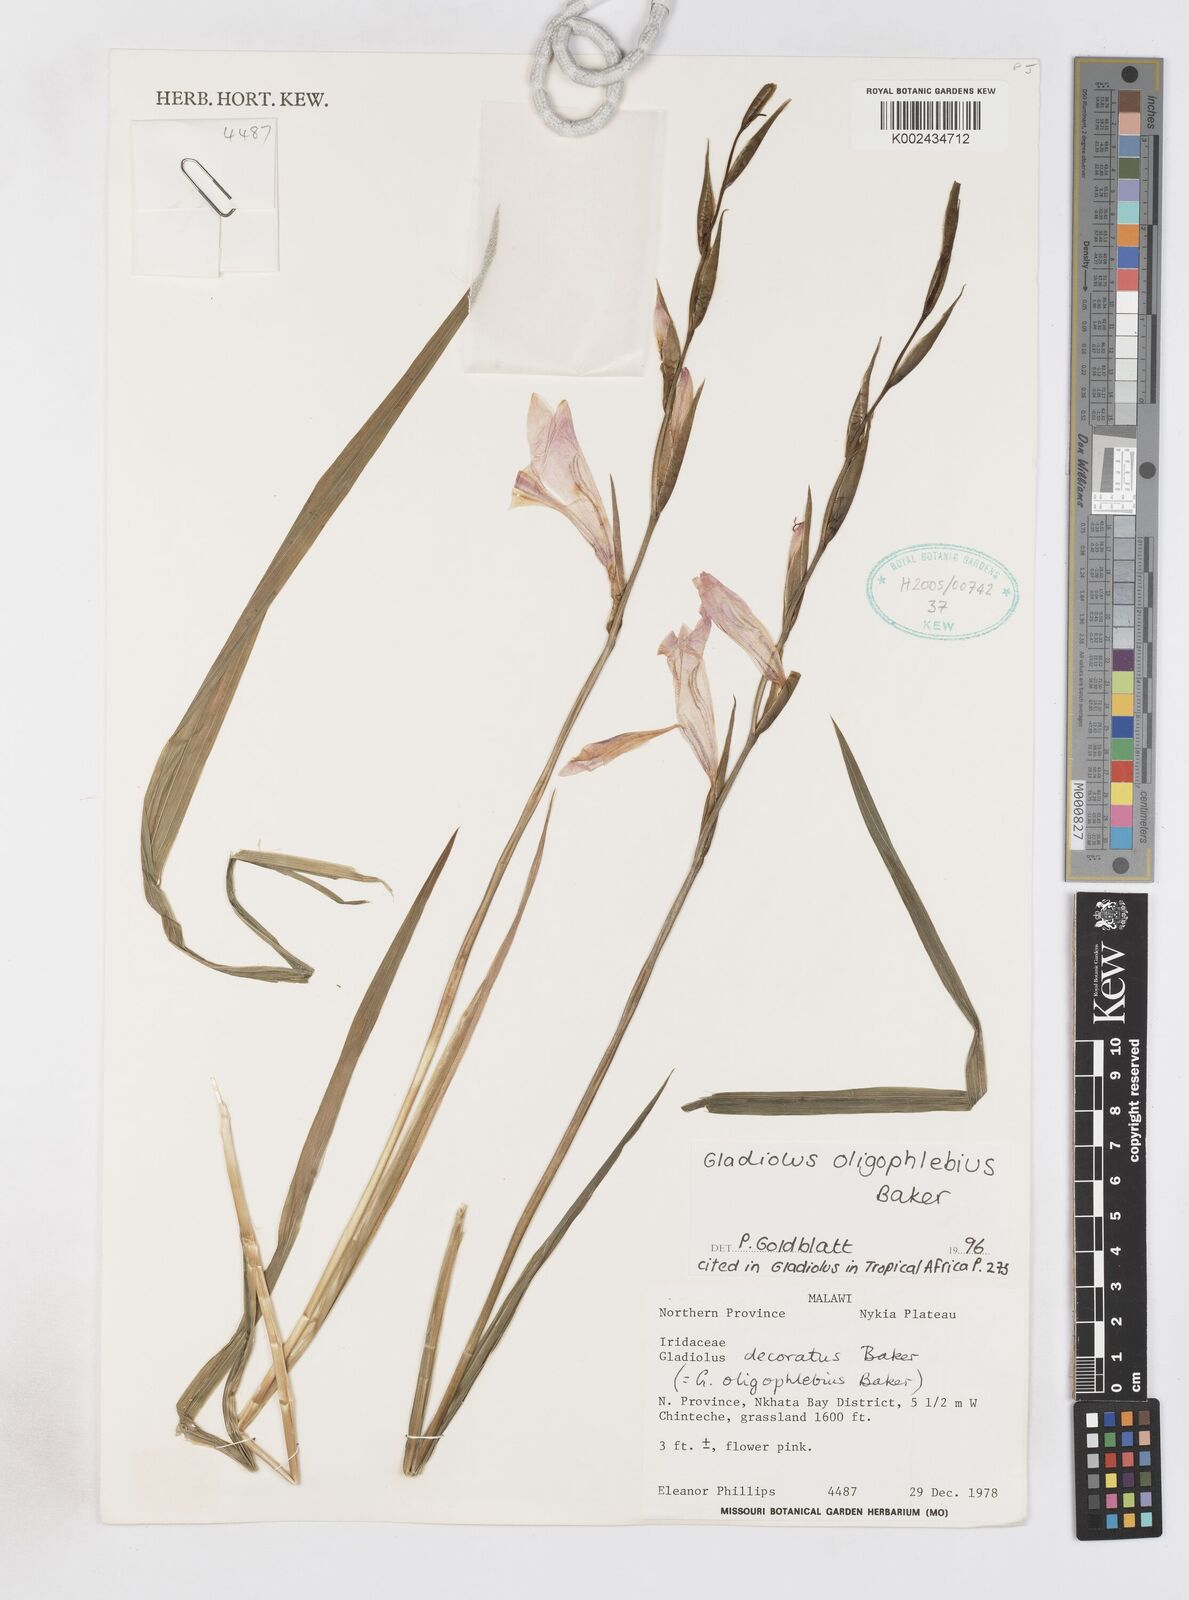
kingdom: Plantae
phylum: Tracheophyta
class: Liliopsida
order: Asparagales
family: Iridaceae
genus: Gladiolus
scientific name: Gladiolus oligophlebius
